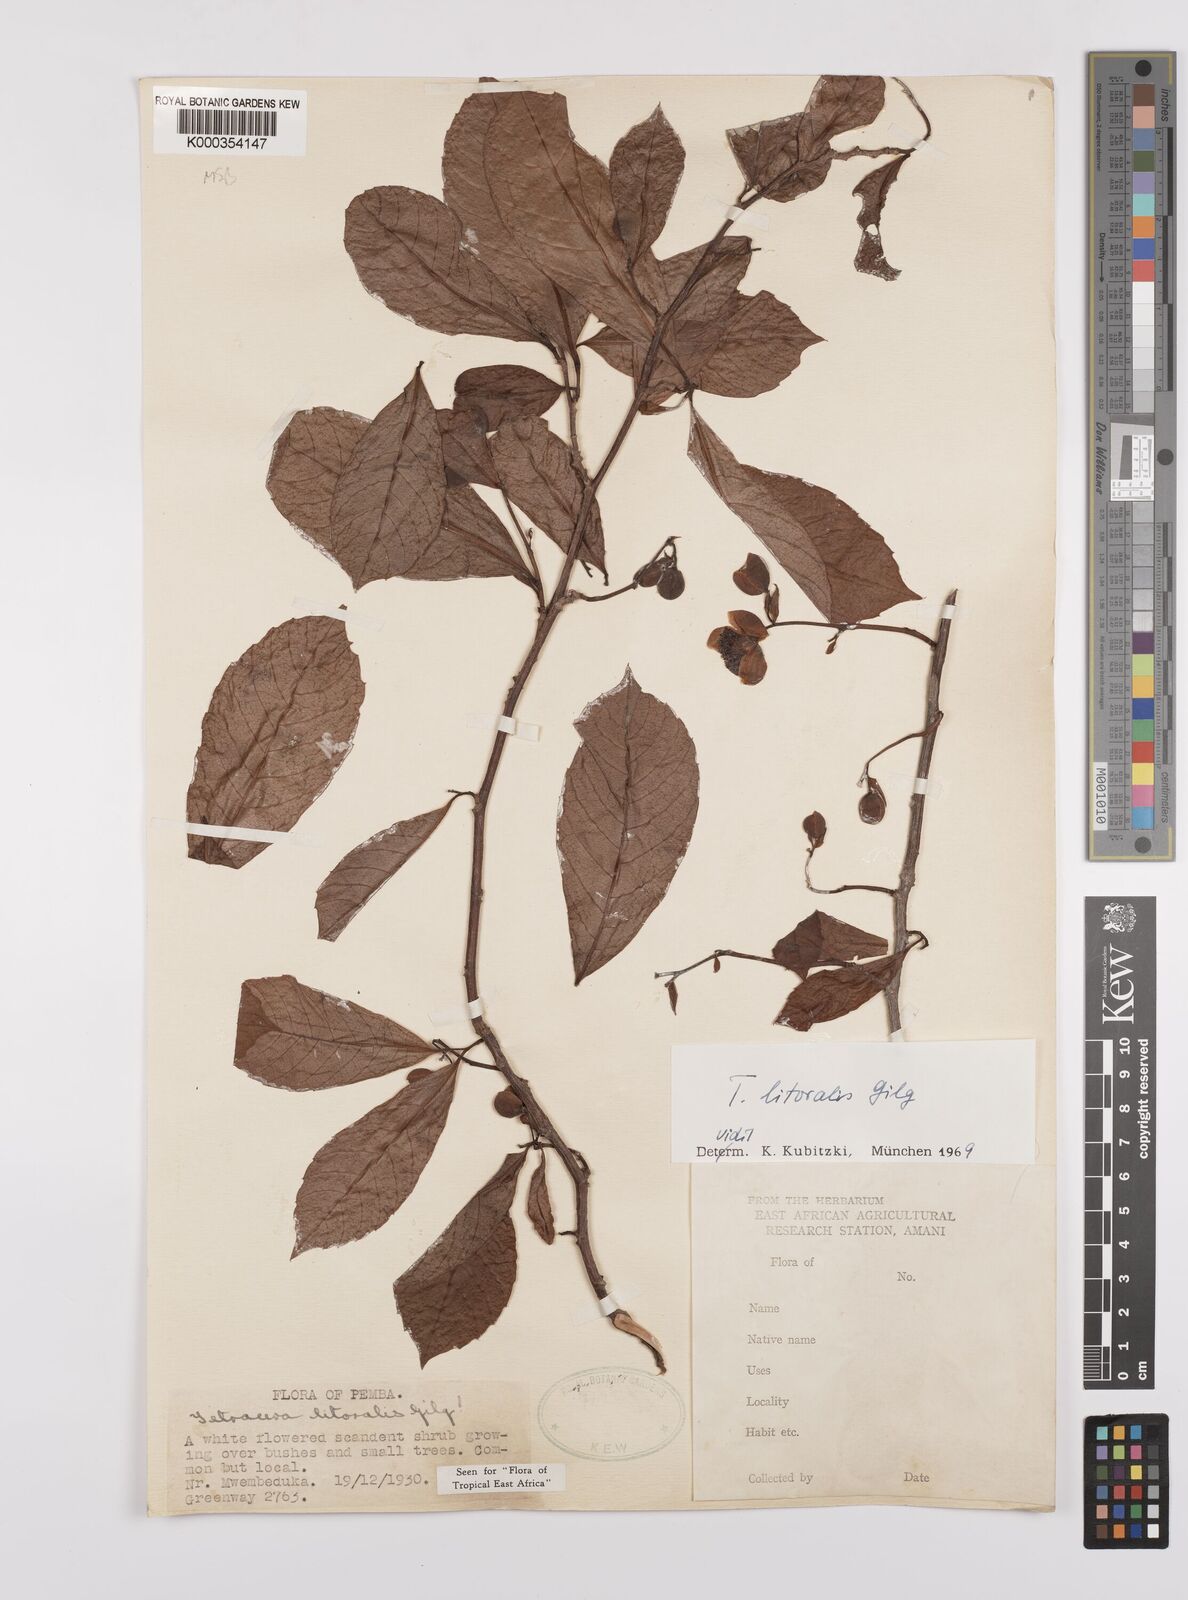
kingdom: Plantae
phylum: Tracheophyta
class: Magnoliopsida
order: Dilleniales
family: Dilleniaceae
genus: Tetracera
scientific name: Tetracera litoralis
